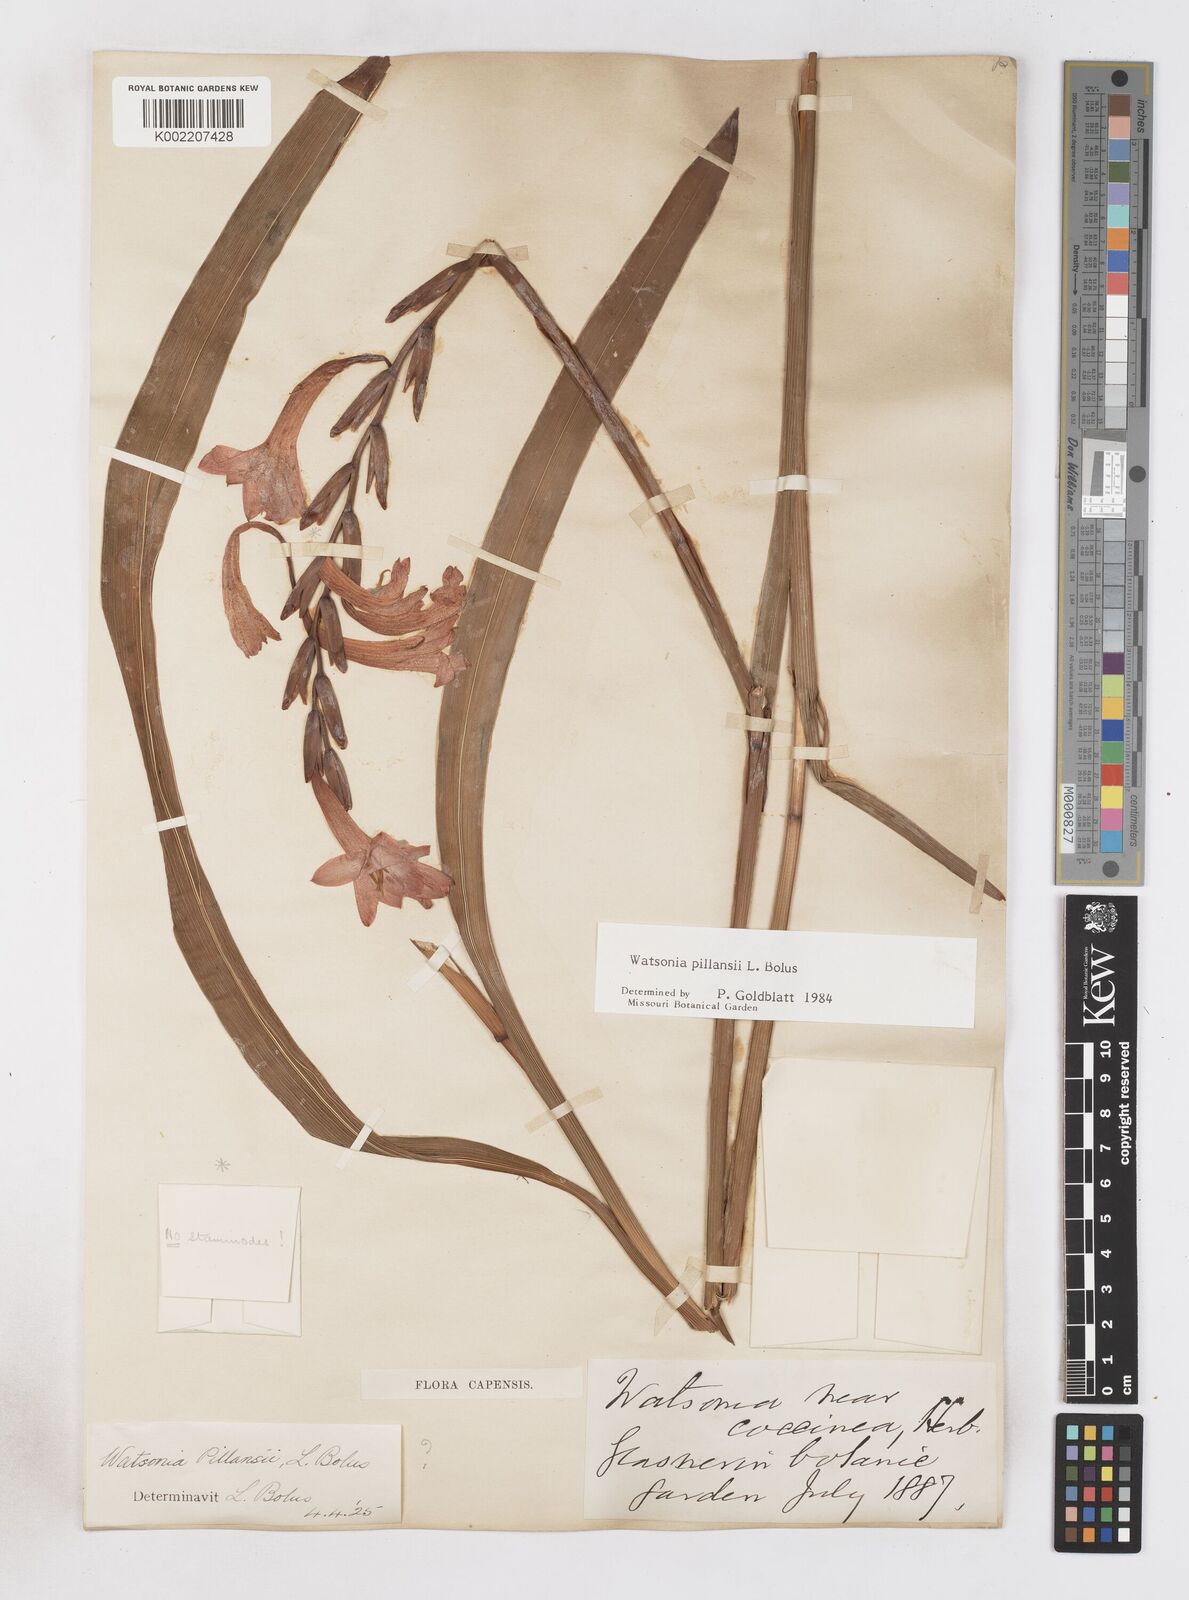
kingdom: Plantae
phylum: Tracheophyta
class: Liliopsida
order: Asparagales
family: Iridaceae
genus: Watsonia
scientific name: Watsonia pillansii
